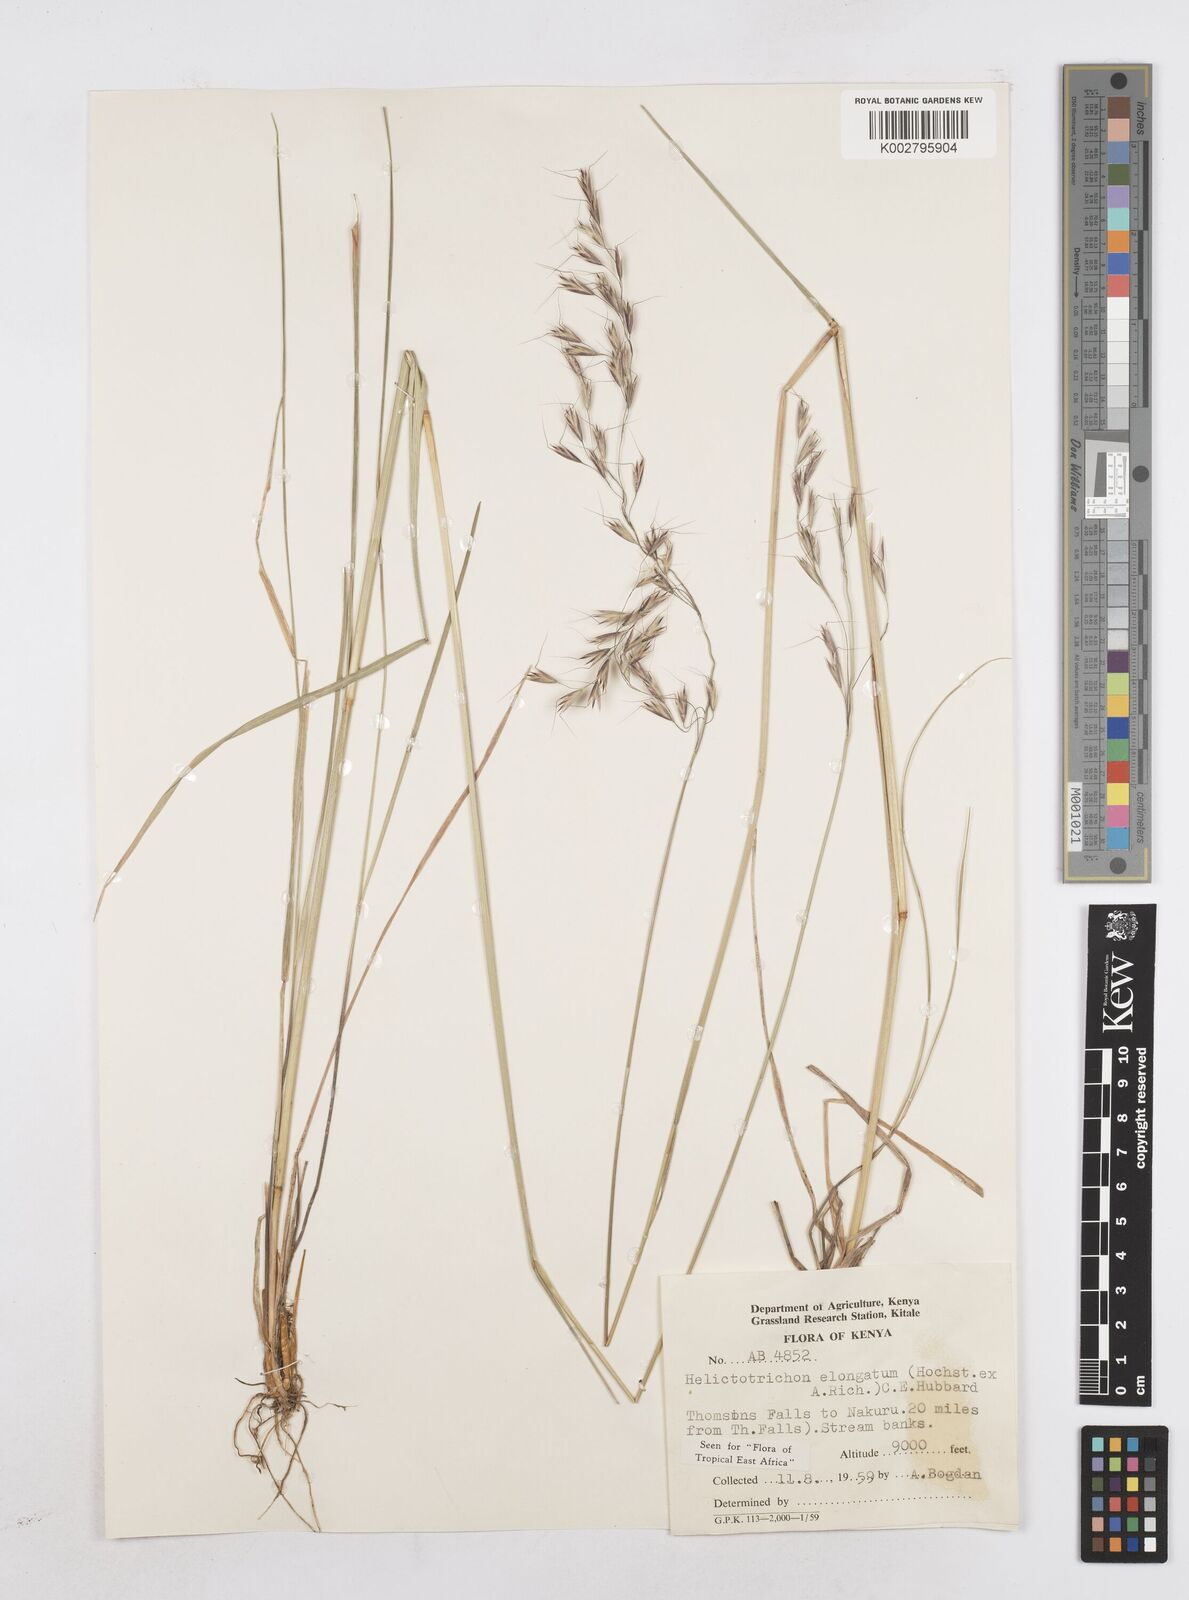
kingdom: Plantae
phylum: Tracheophyta
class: Liliopsida
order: Poales
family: Poaceae
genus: Trisetopsis
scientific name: Trisetopsis elongata
